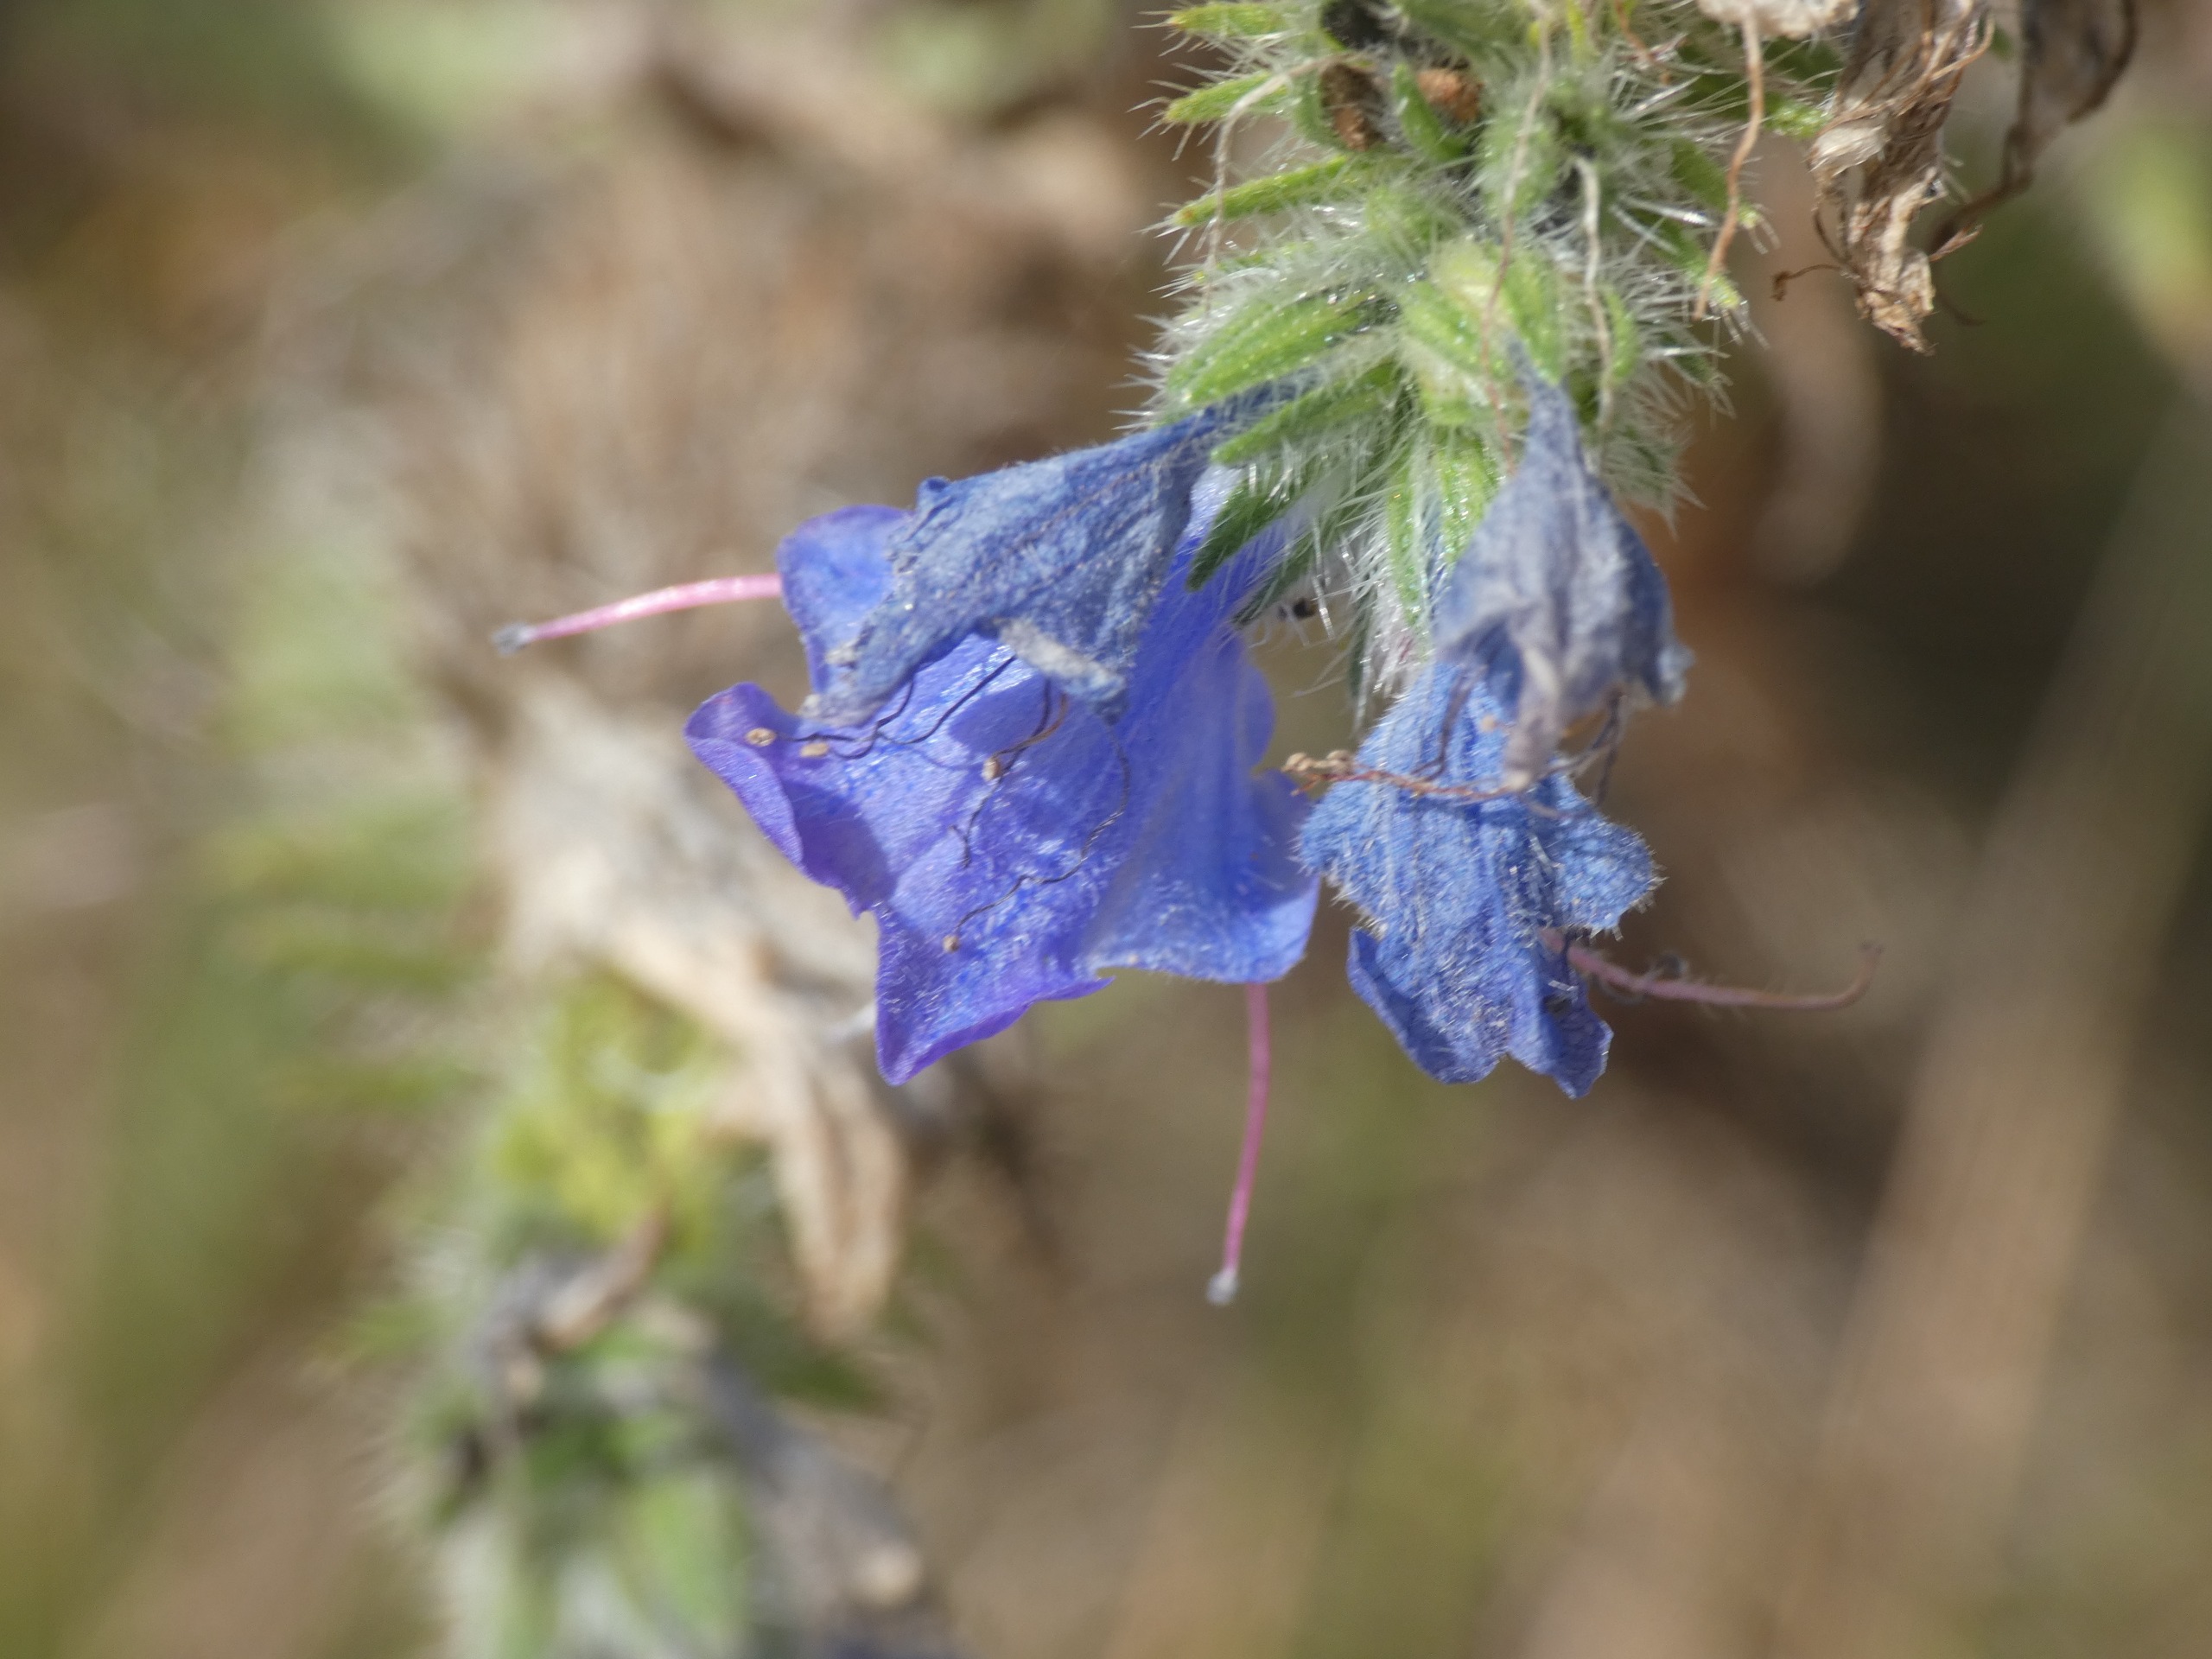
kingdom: Plantae
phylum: Tracheophyta
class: Magnoliopsida
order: Boraginales
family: Boraginaceae
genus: Echium
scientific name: Echium vulgare
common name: Slangehoved
